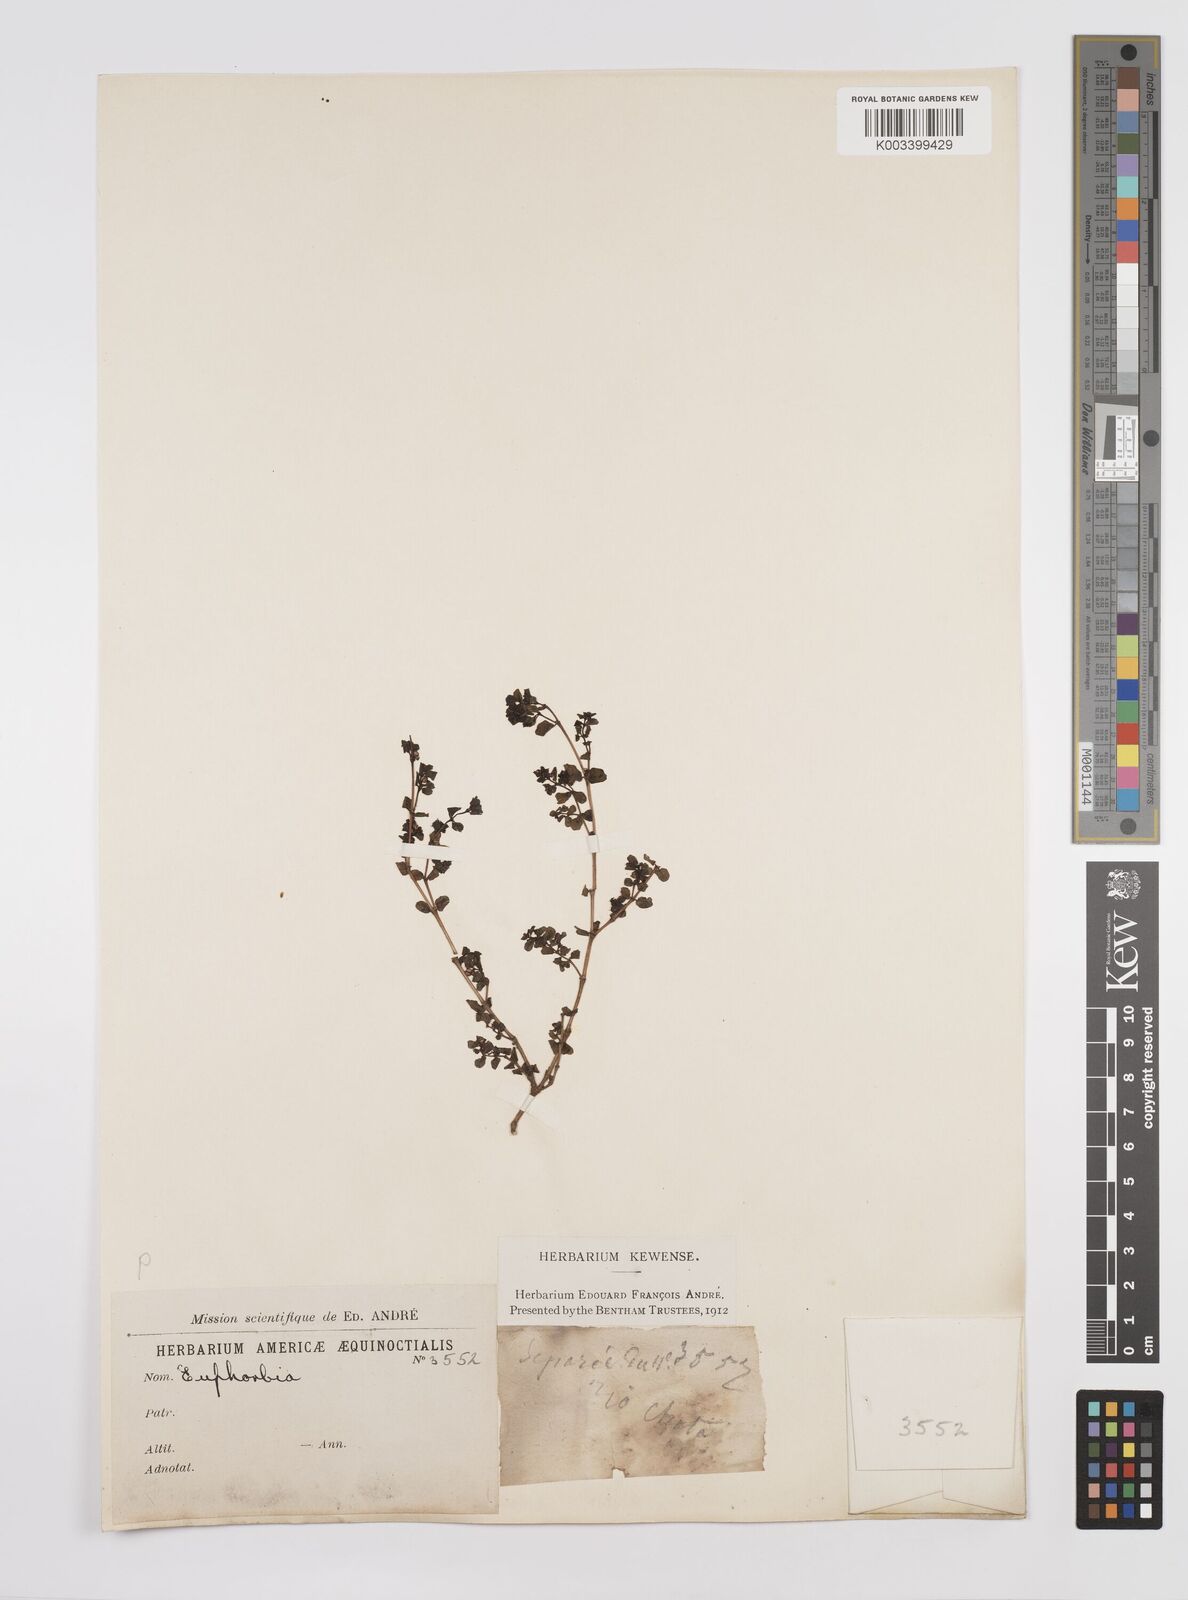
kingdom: Plantae
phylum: Tracheophyta
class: Magnoliopsida
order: Malpighiales
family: Euphorbiaceae
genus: Euphorbia
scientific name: Euphorbia
